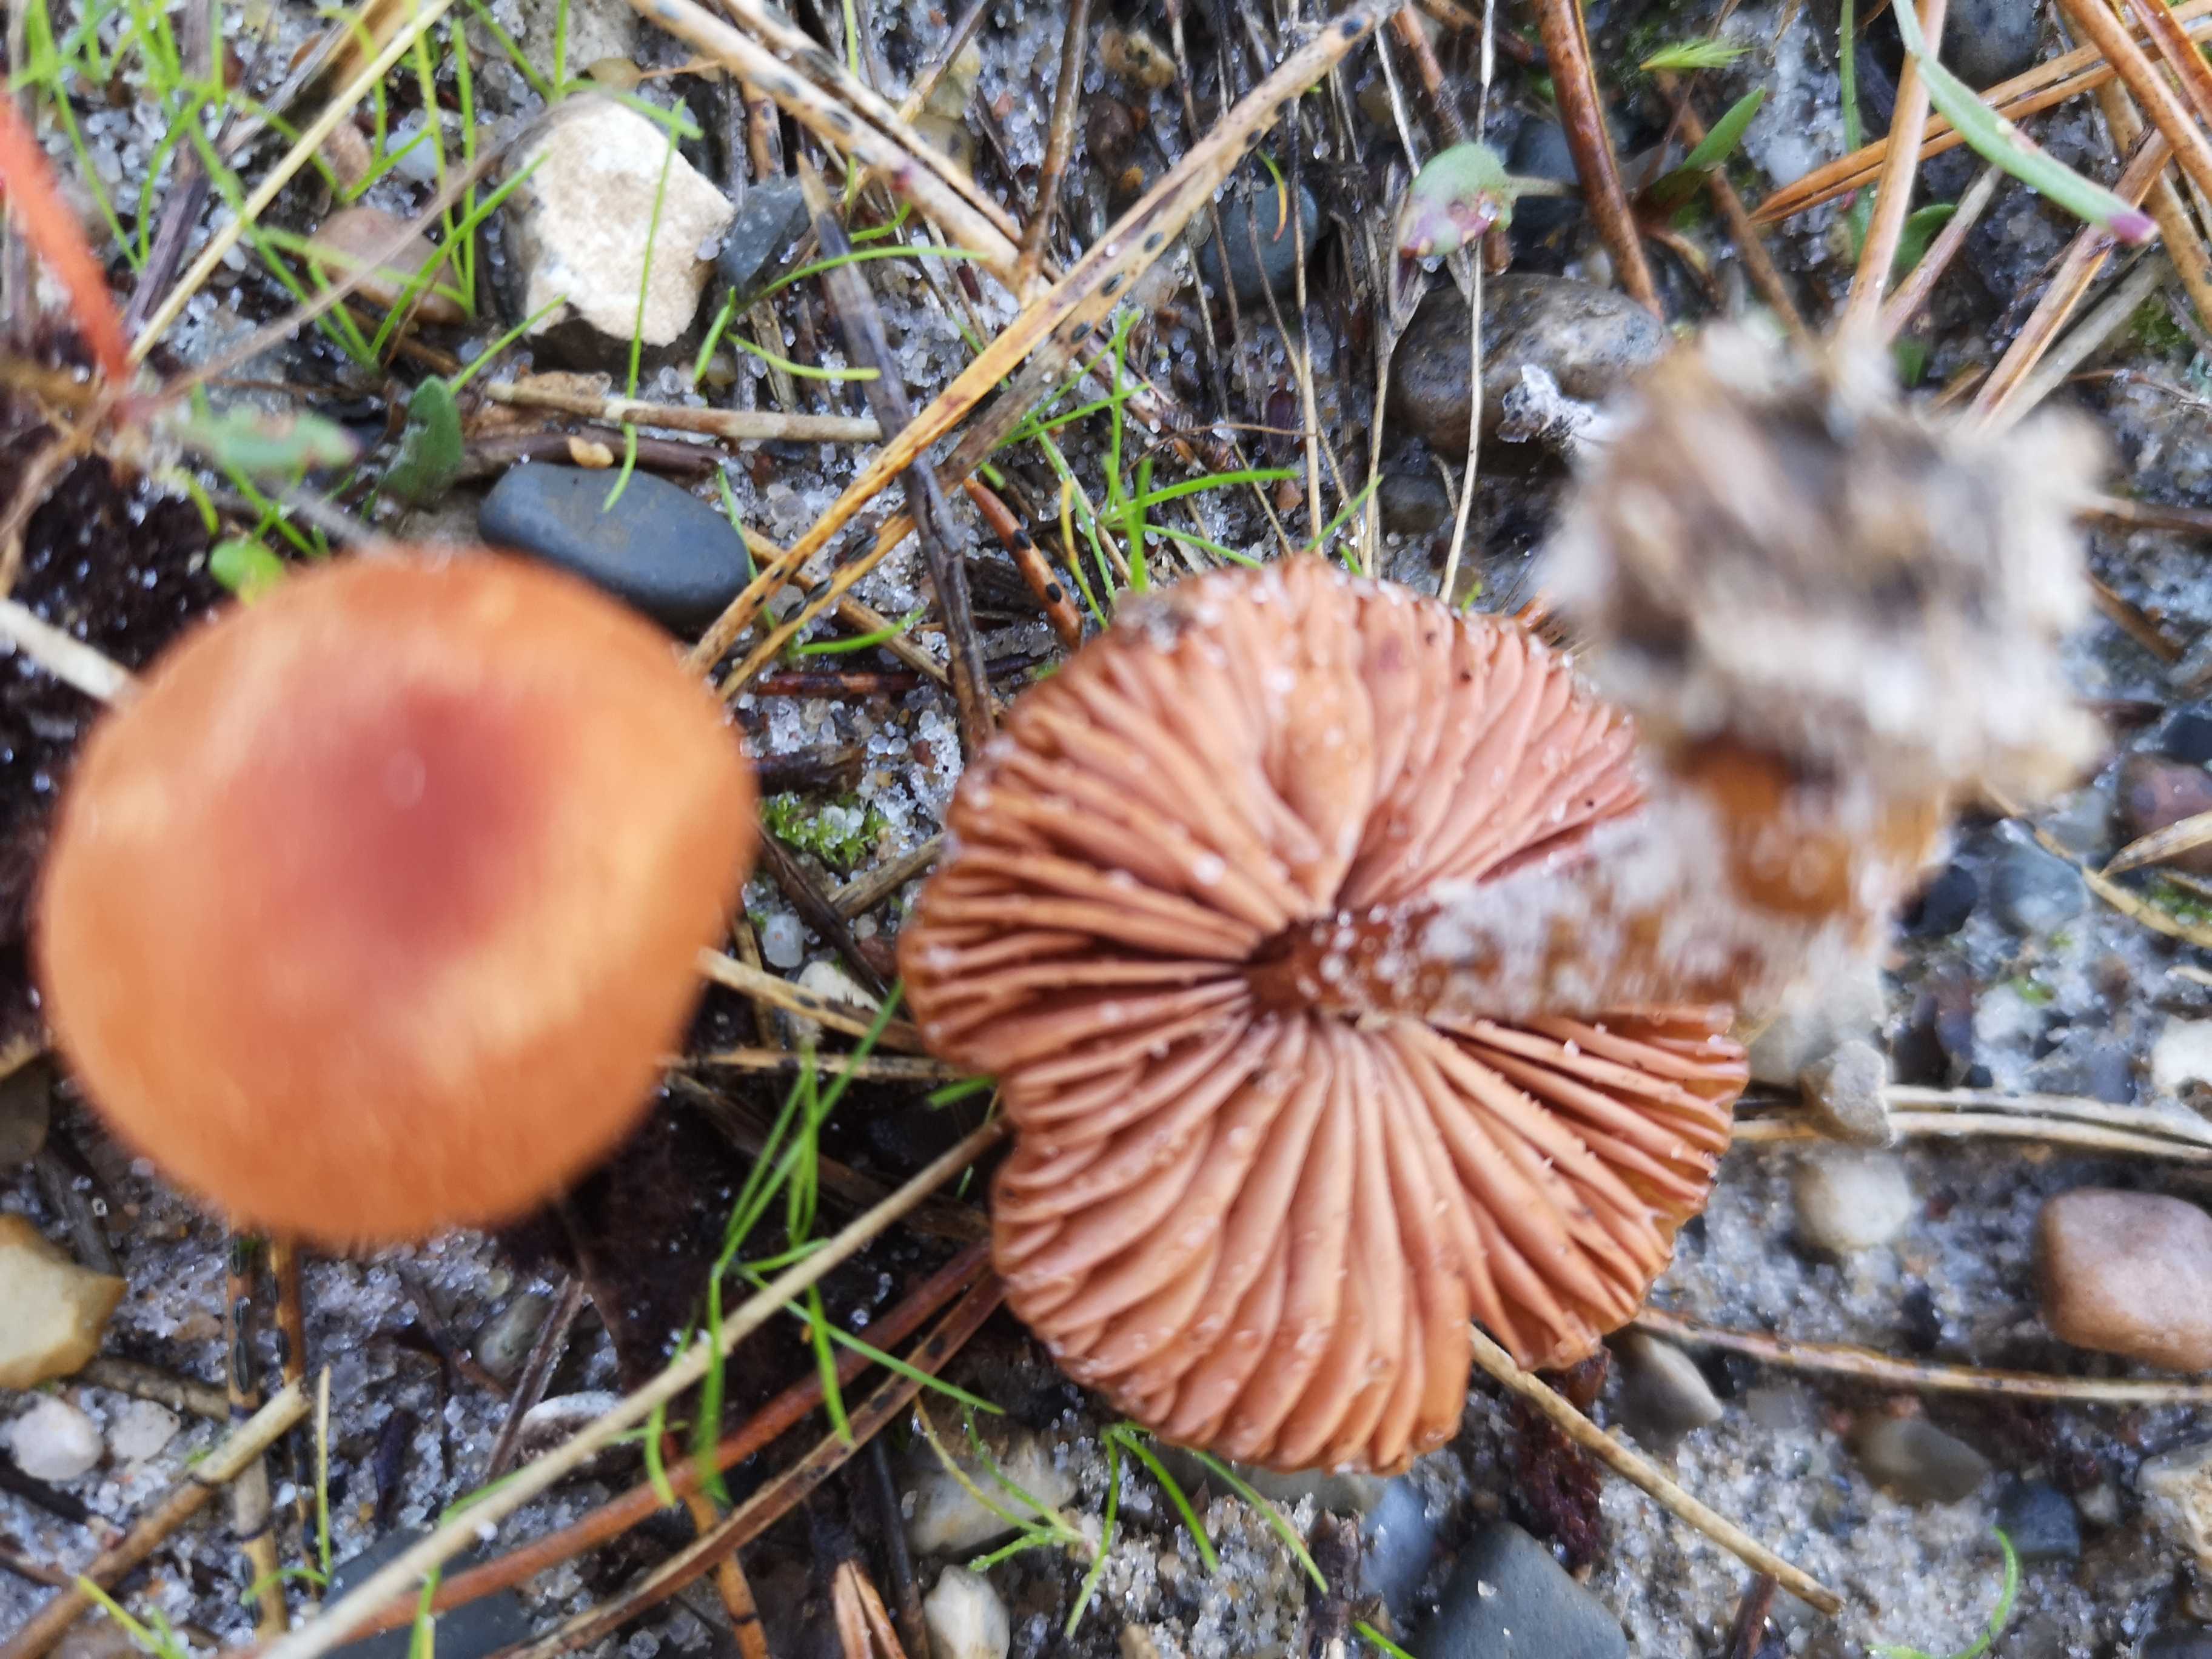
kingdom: Fungi
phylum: Basidiomycota
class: Agaricomycetes
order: Agaricales
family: Hydnangiaceae
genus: Laccaria
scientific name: Laccaria proxima
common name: stor ametysthat
